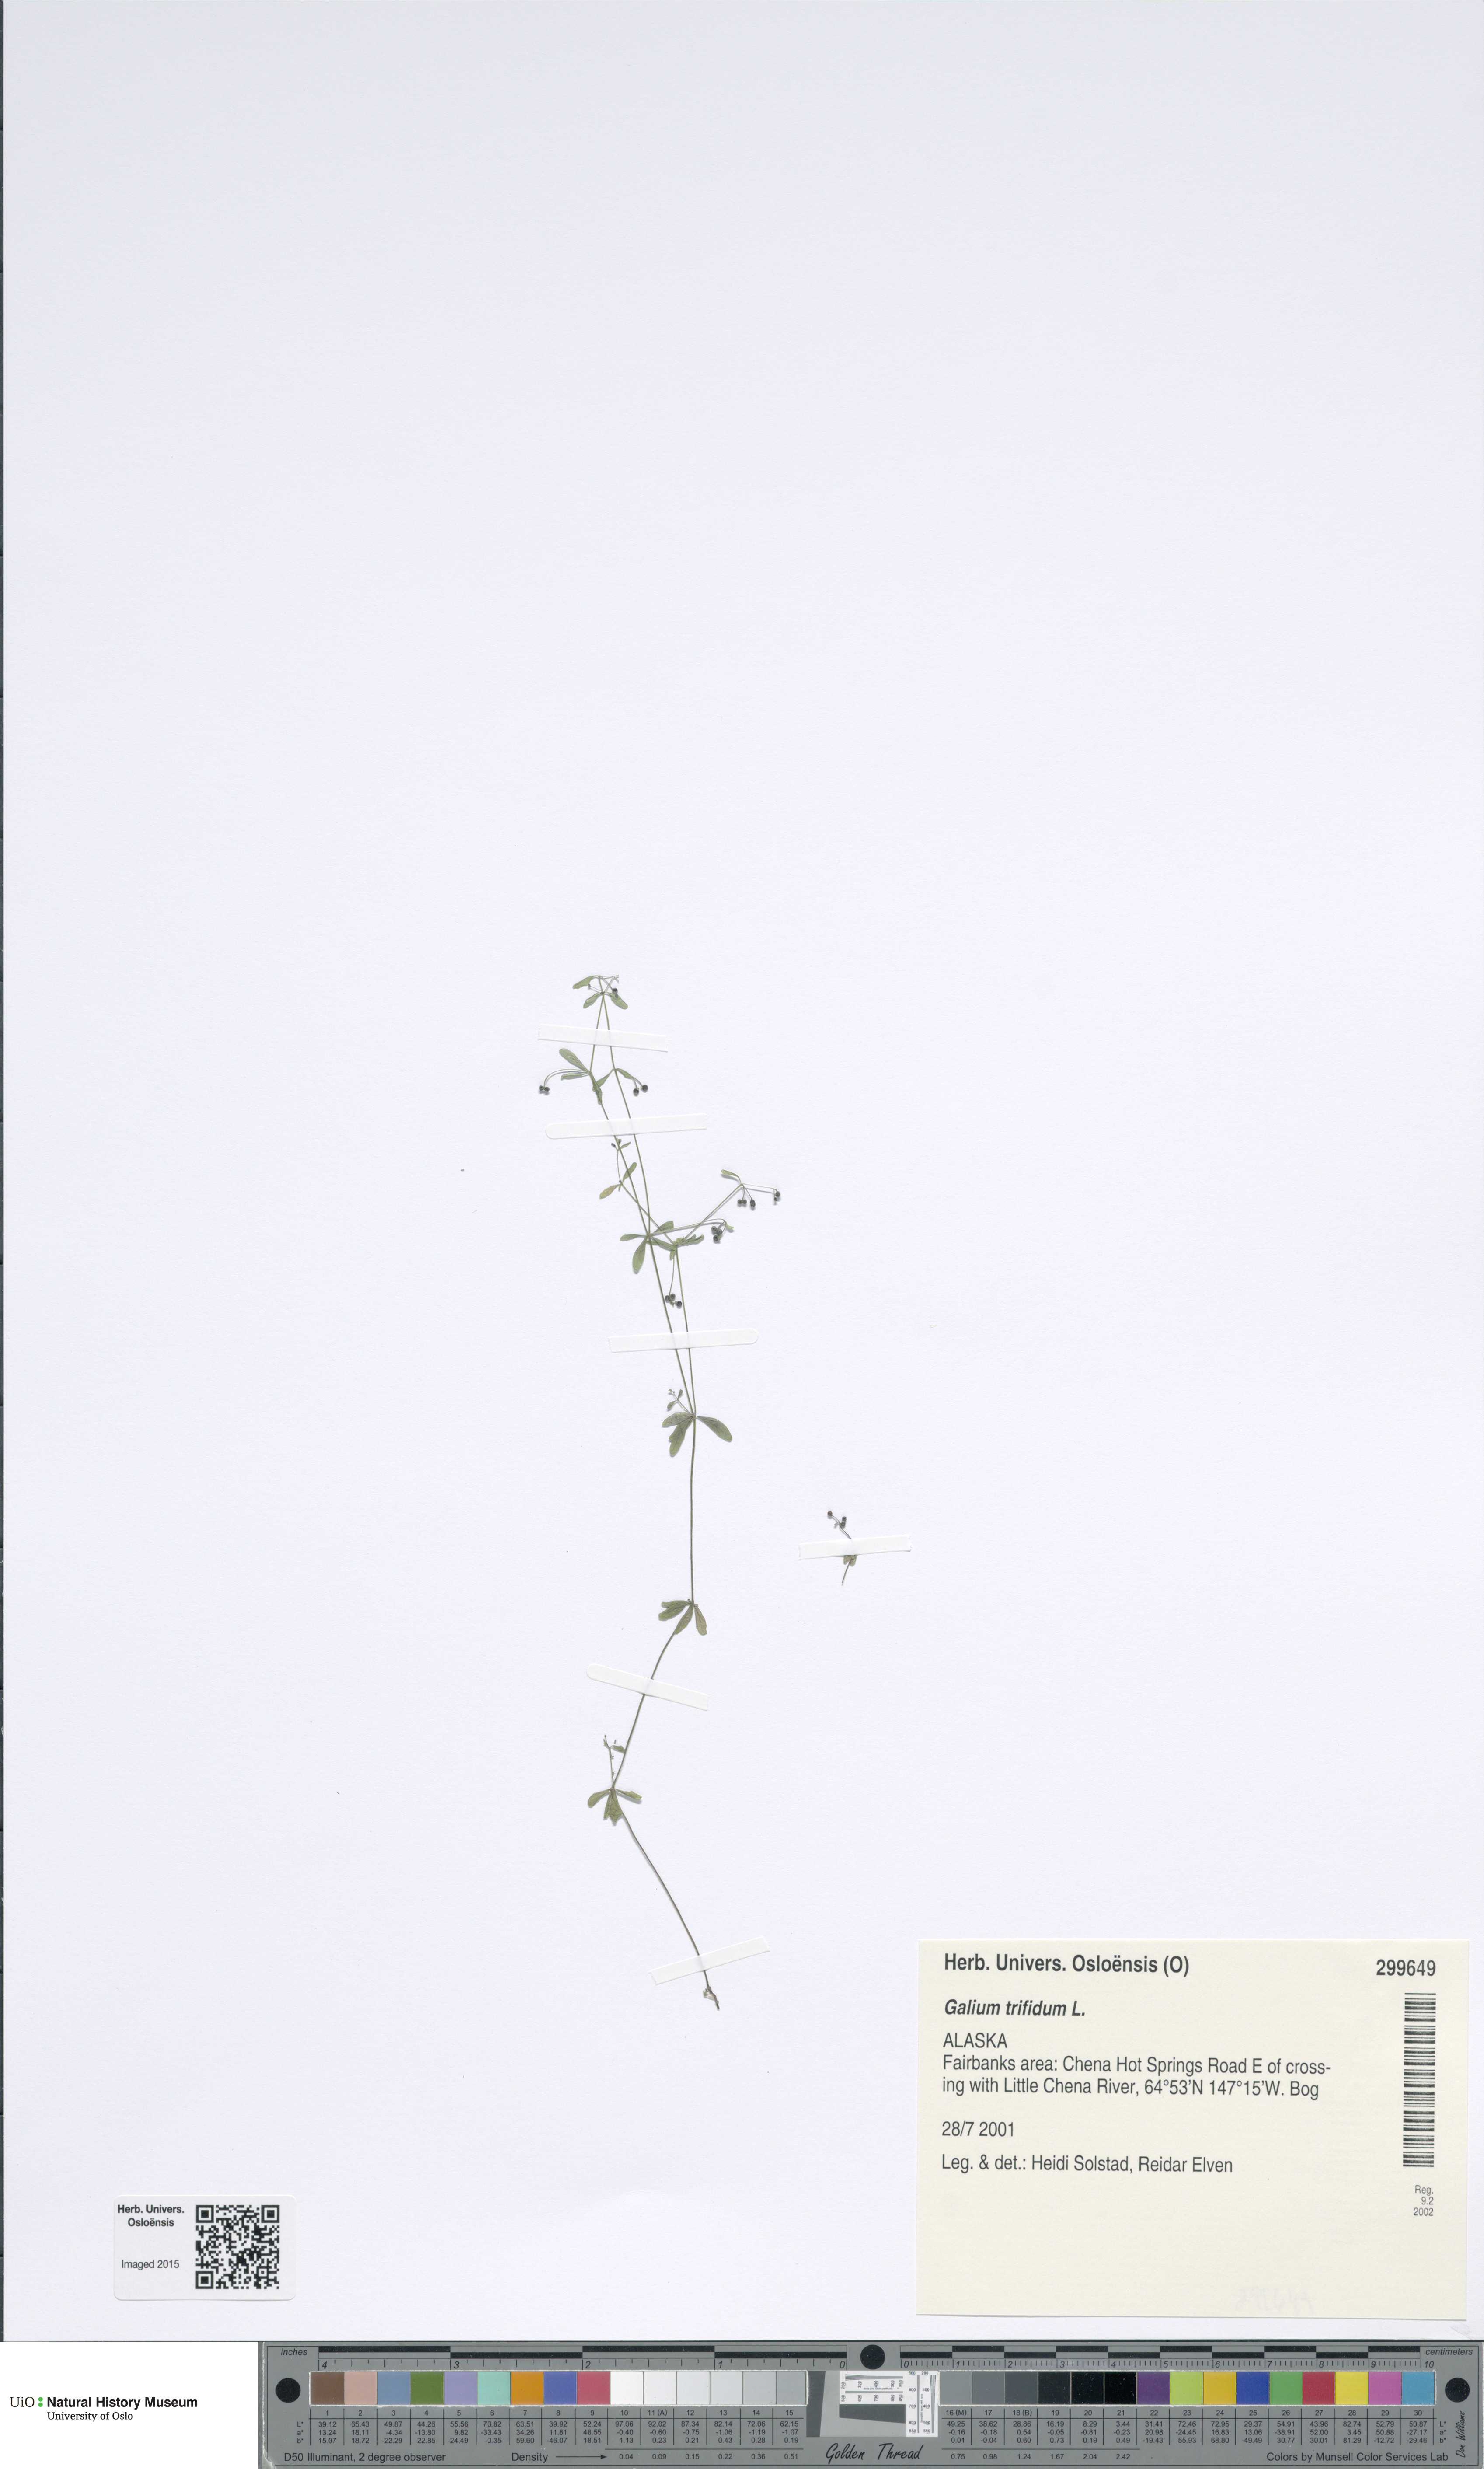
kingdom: Plantae
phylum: Tracheophyta
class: Magnoliopsida
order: Gentianales
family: Rubiaceae
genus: Galium
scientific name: Galium trifidum
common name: Small bedstraw
